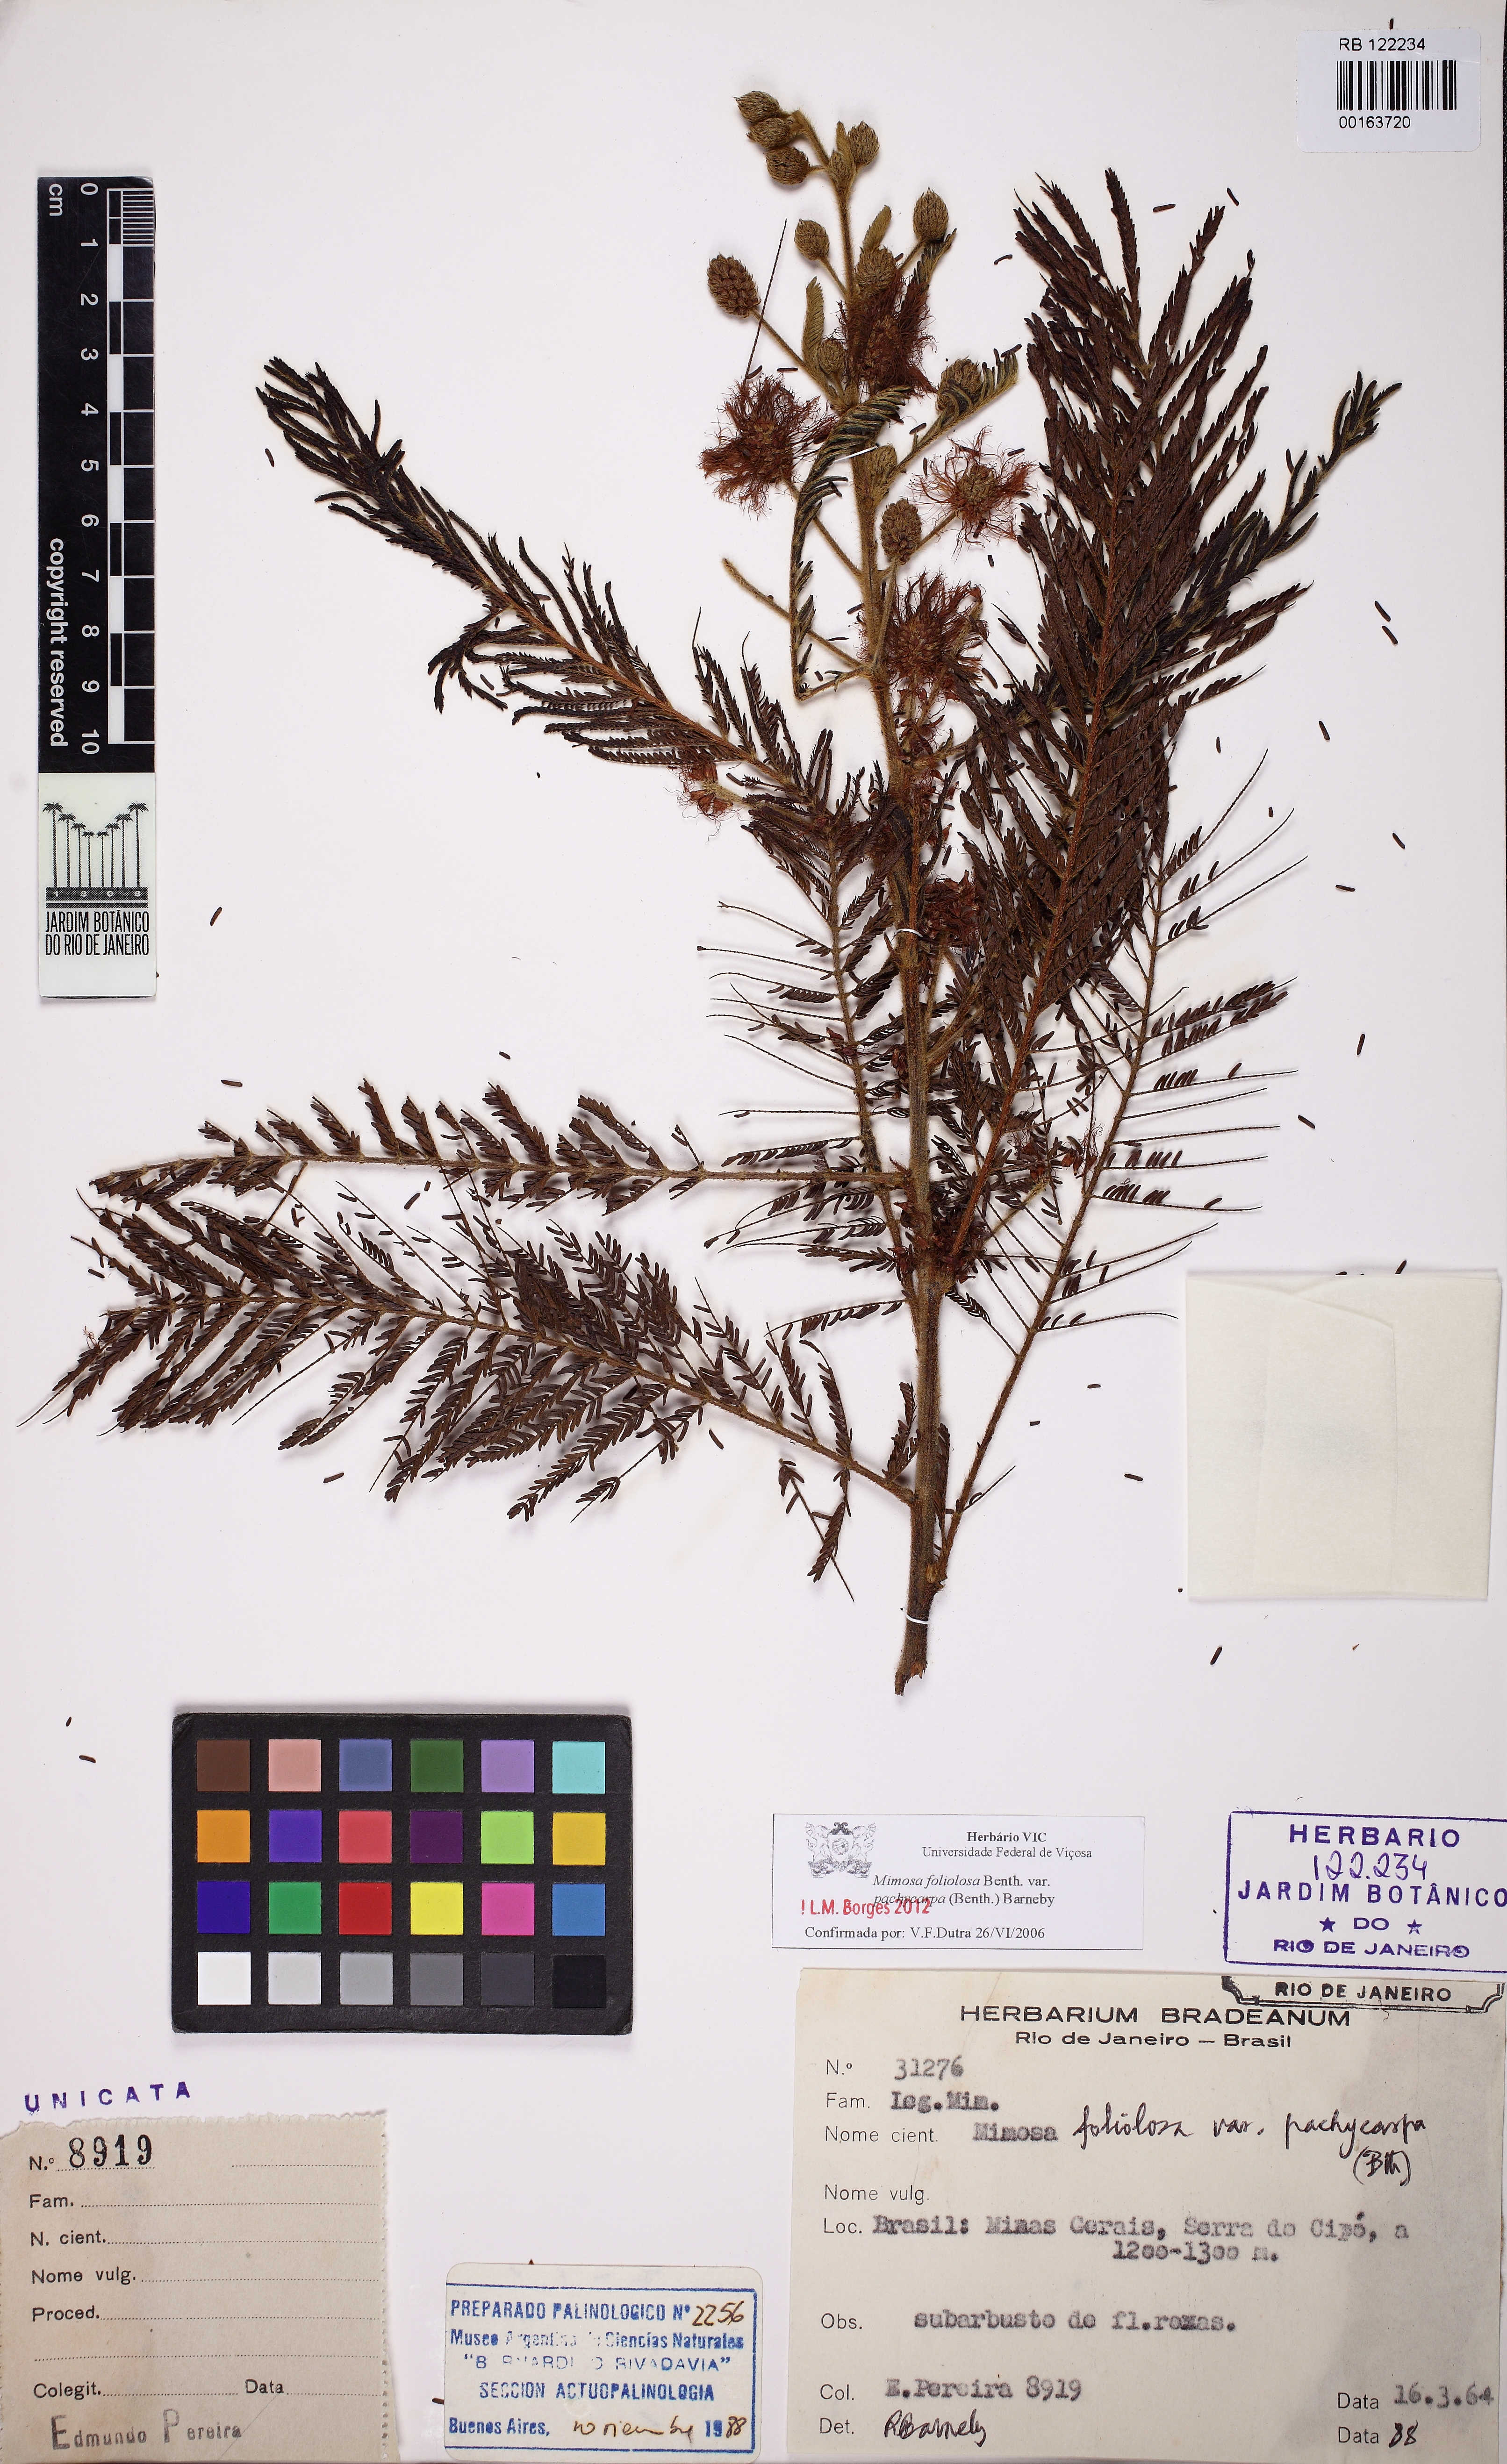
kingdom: Plantae
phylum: Tracheophyta
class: Magnoliopsida
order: Fabales
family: Fabaceae
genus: Mimosa
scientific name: Mimosa foliolosa
